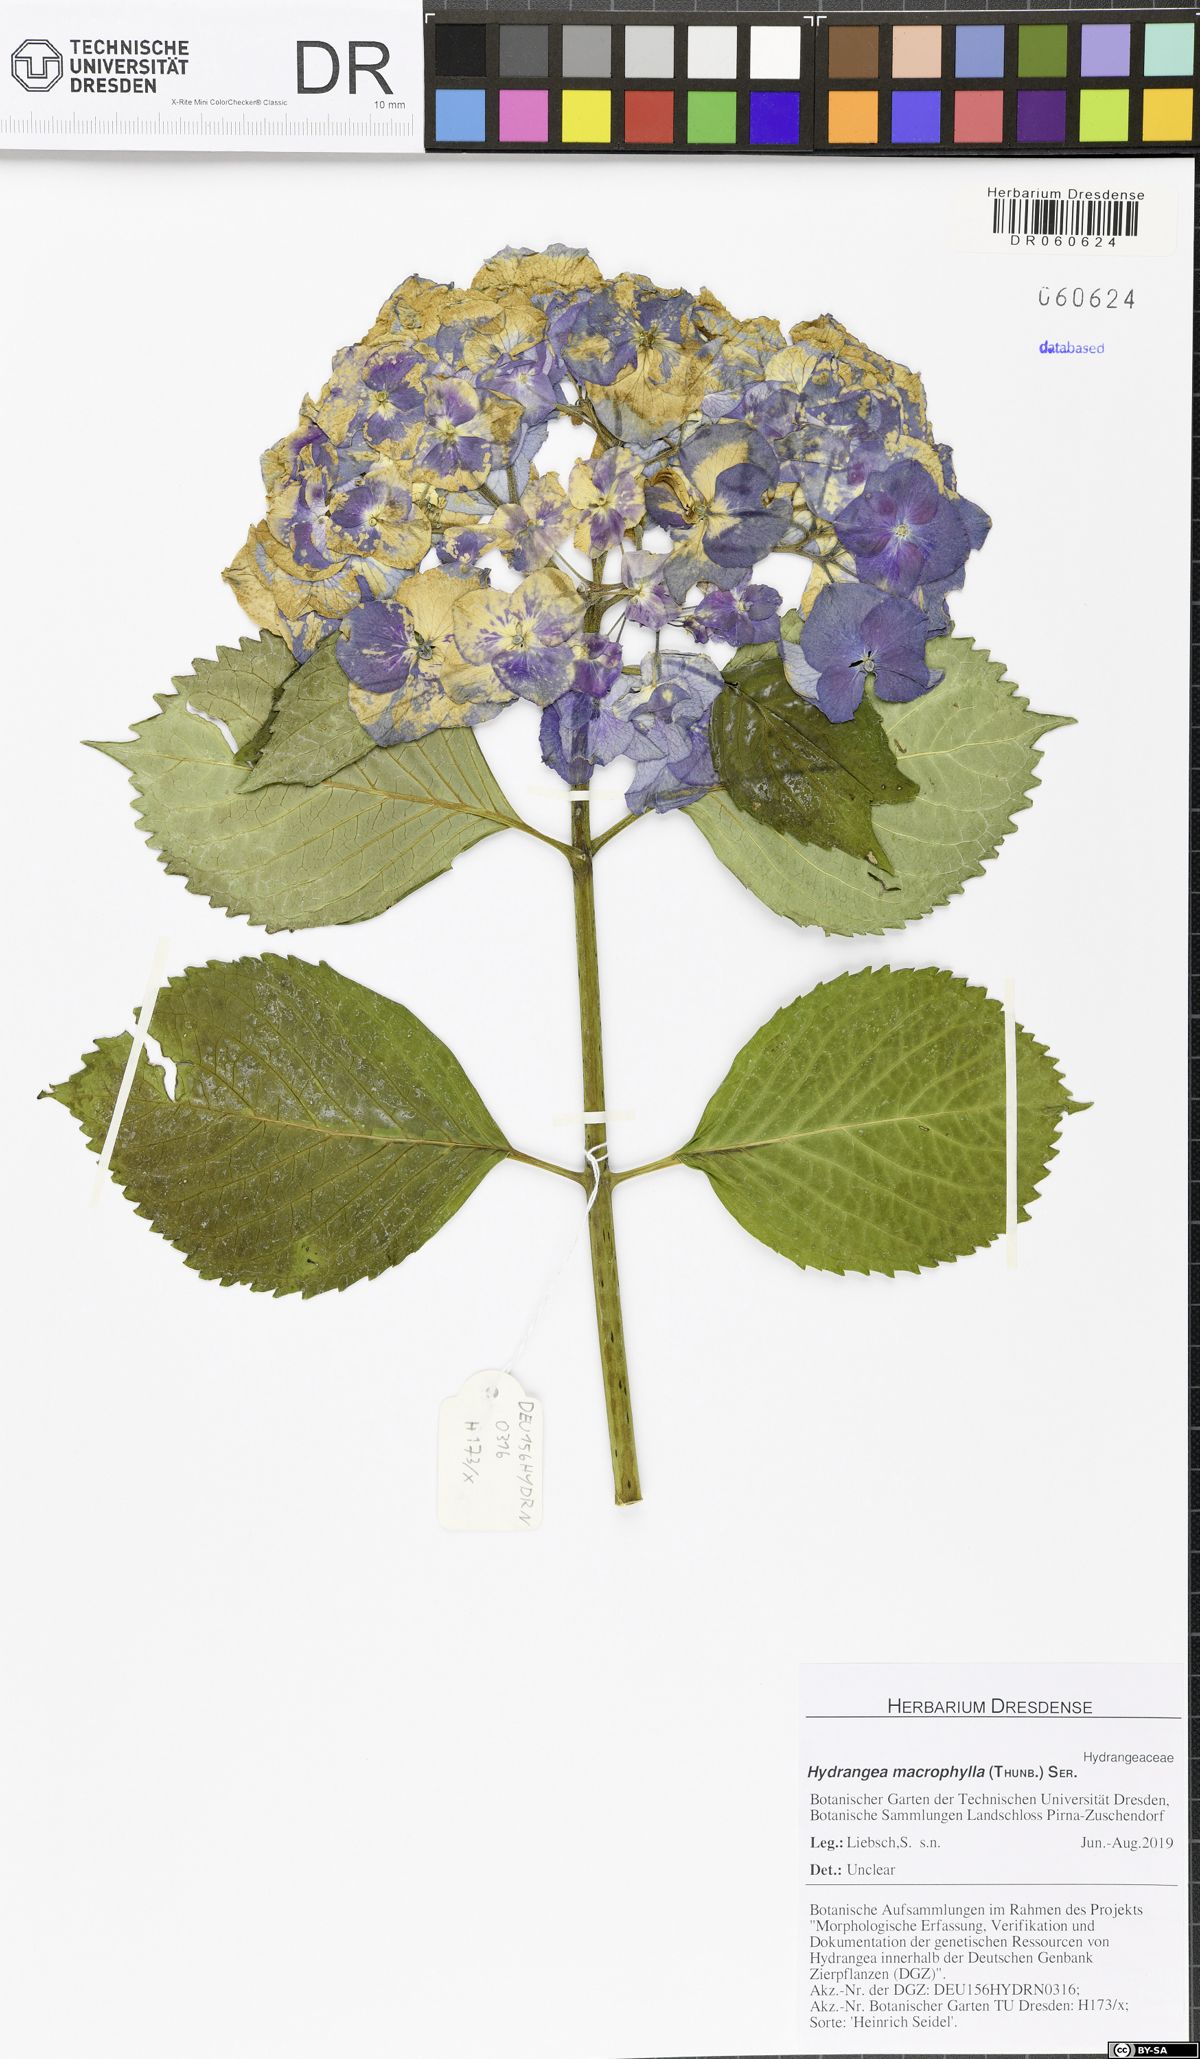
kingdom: Plantae
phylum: Tracheophyta
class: Magnoliopsida
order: Cornales
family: Hydrangeaceae
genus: Hydrangea
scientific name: Hydrangea macrophylla
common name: Hydrangea
